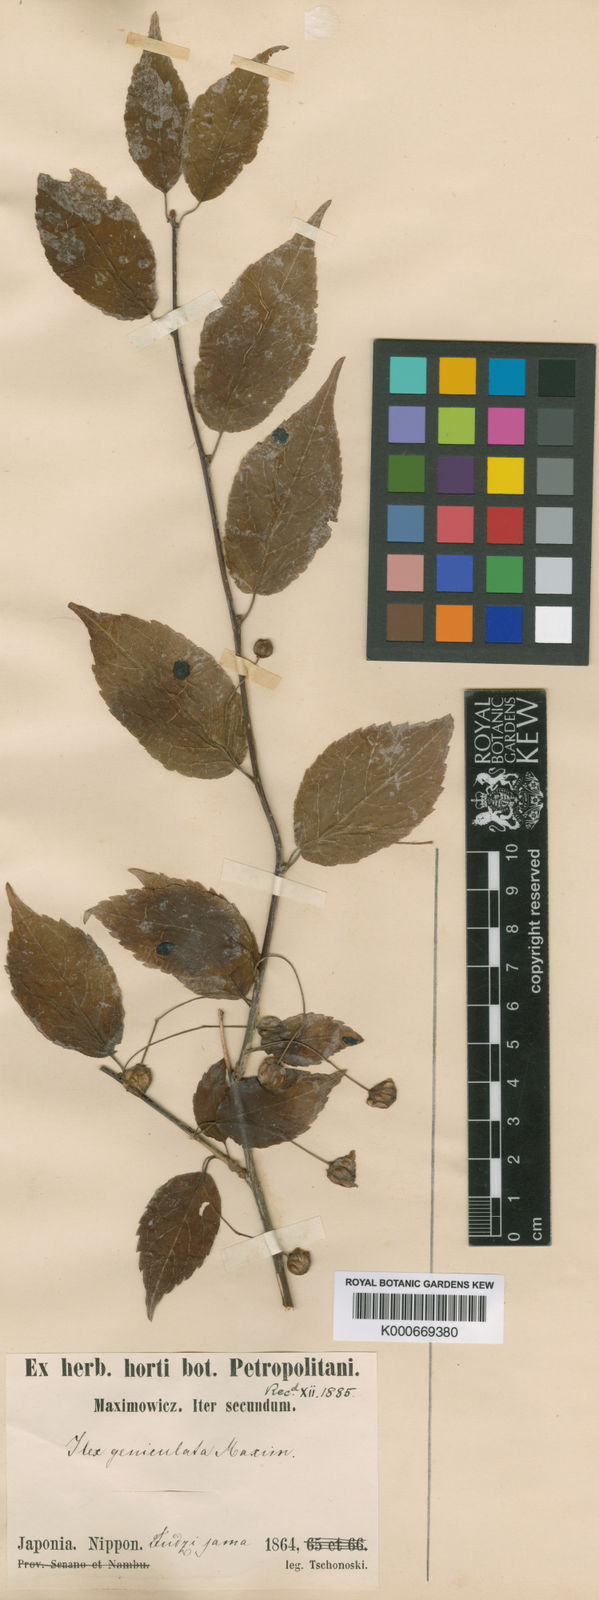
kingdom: Plantae
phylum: Tracheophyta
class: Magnoliopsida
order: Aquifoliales
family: Aquifoliaceae
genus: Ilex
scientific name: Ilex geniculata
